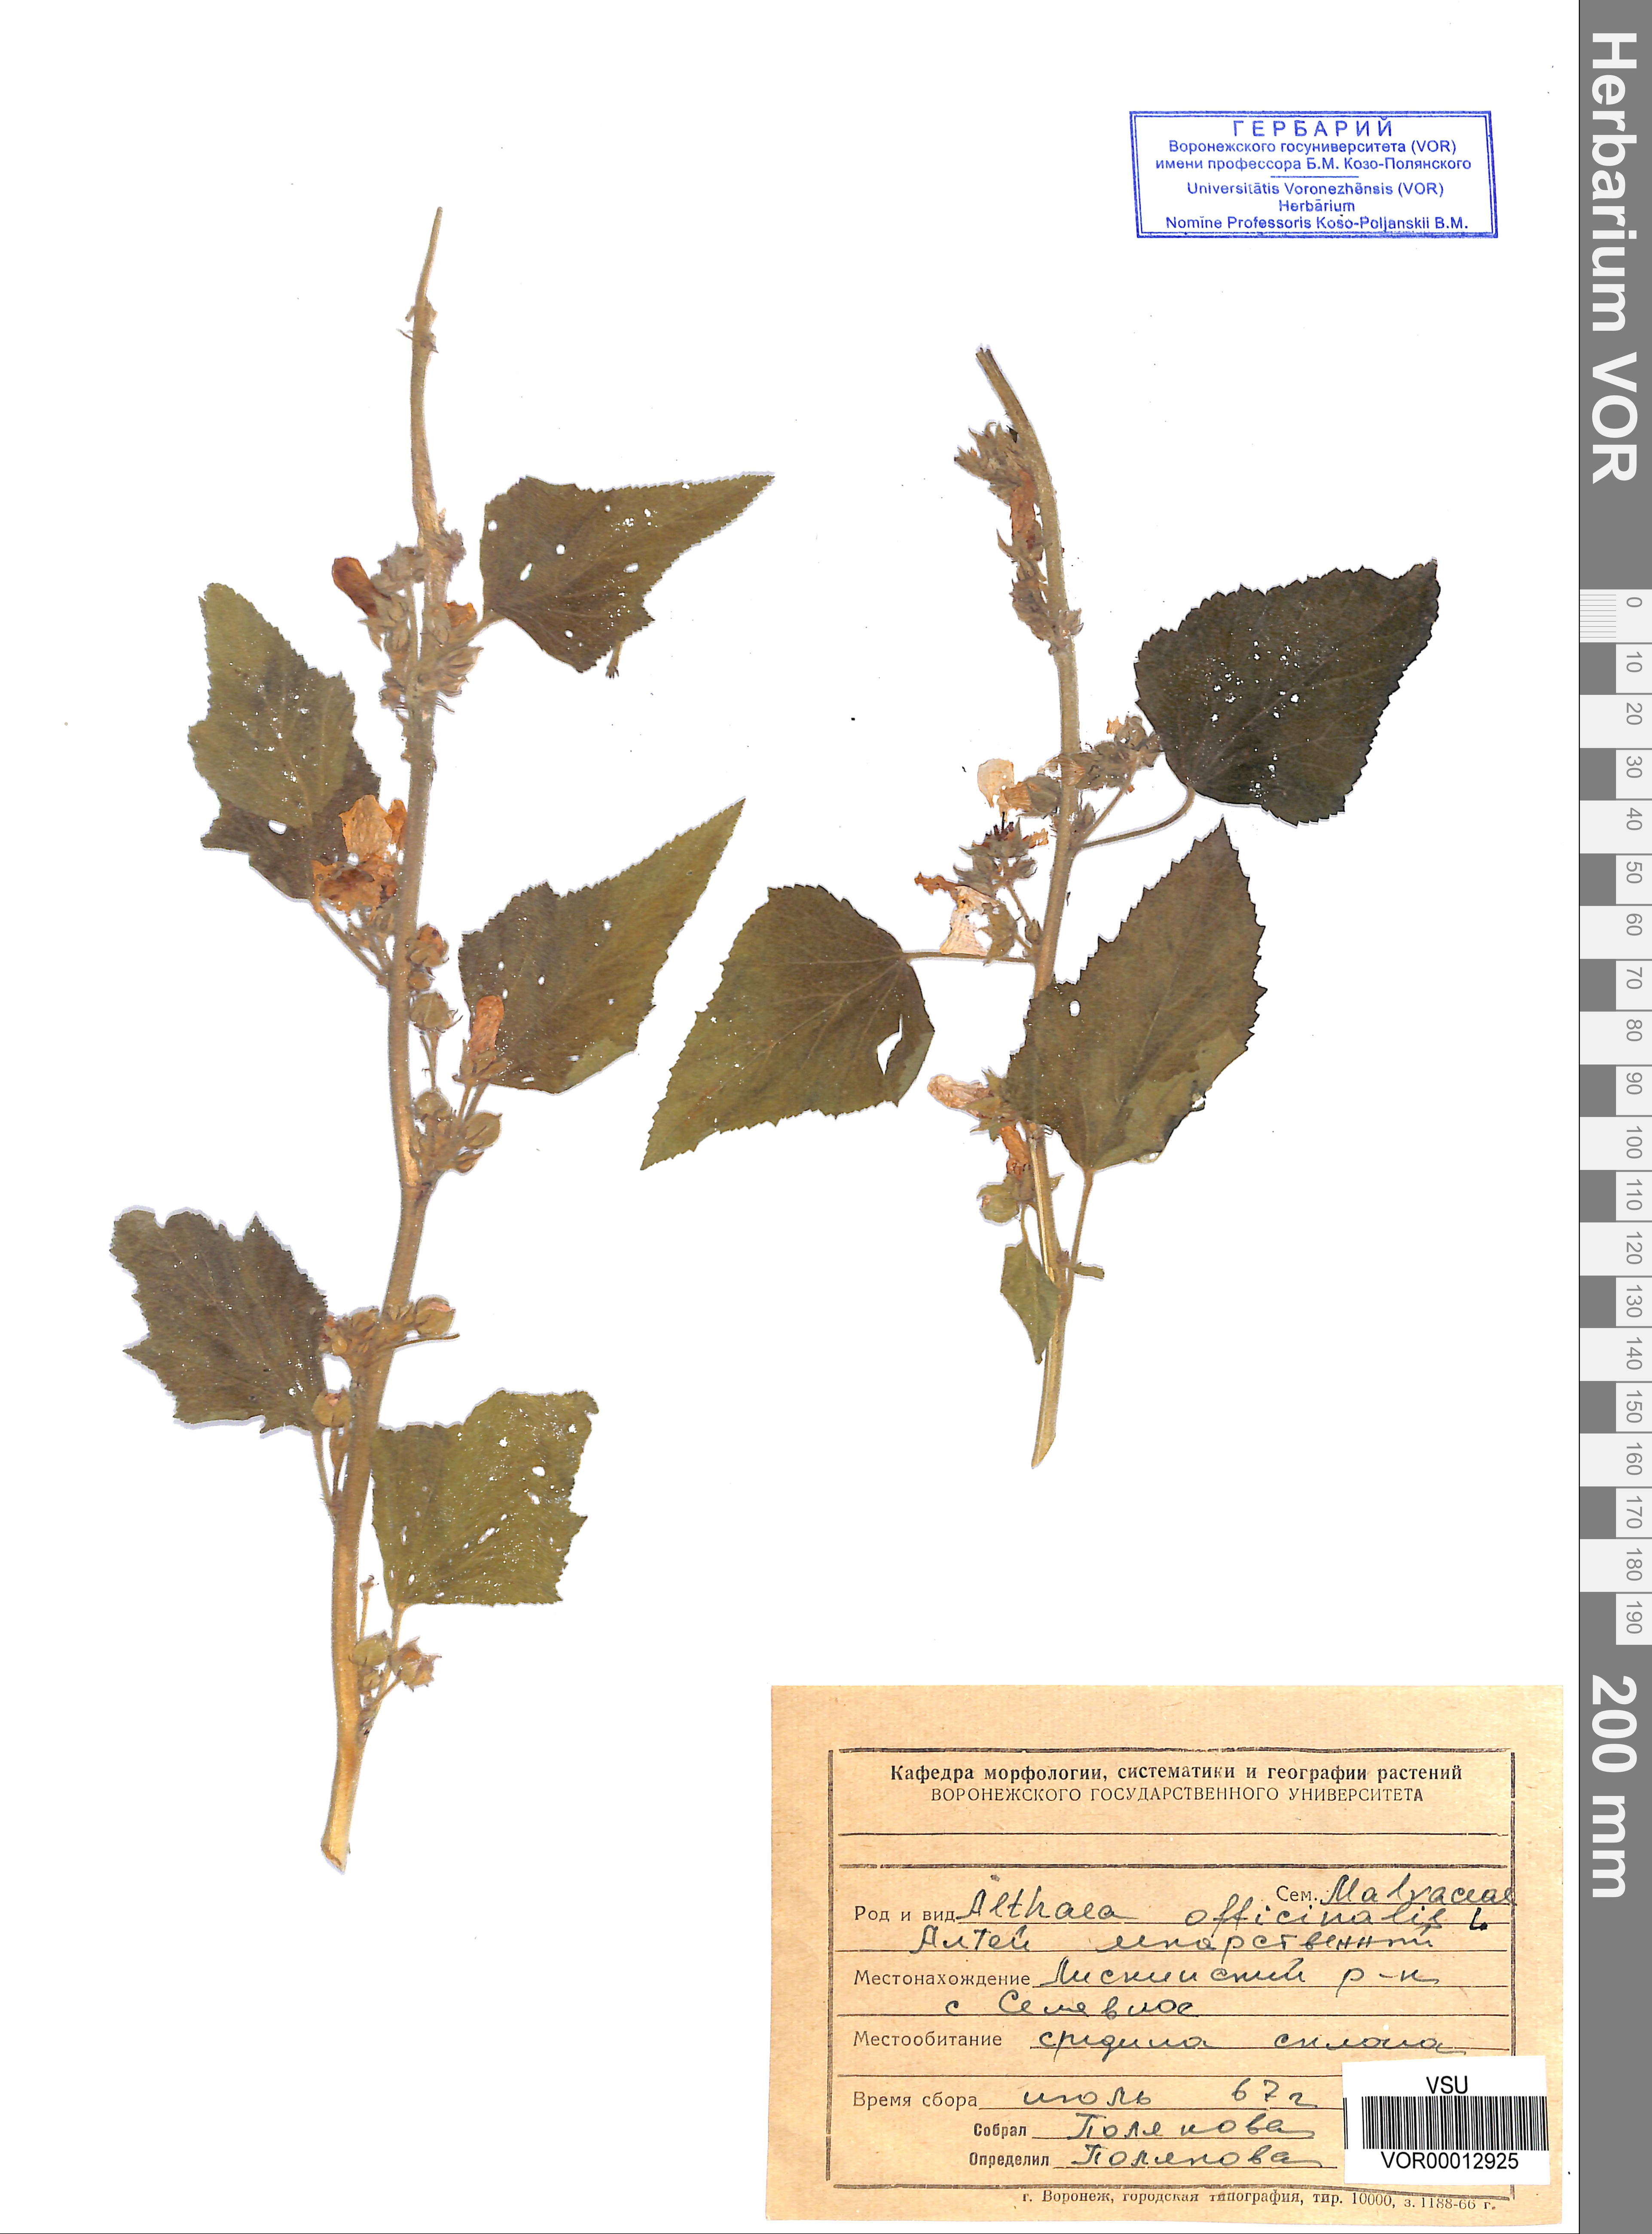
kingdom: Plantae
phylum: Tracheophyta
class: Magnoliopsida
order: Malvales
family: Malvaceae
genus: Althaea
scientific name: Althaea officinalis
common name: Marsh-mallow
